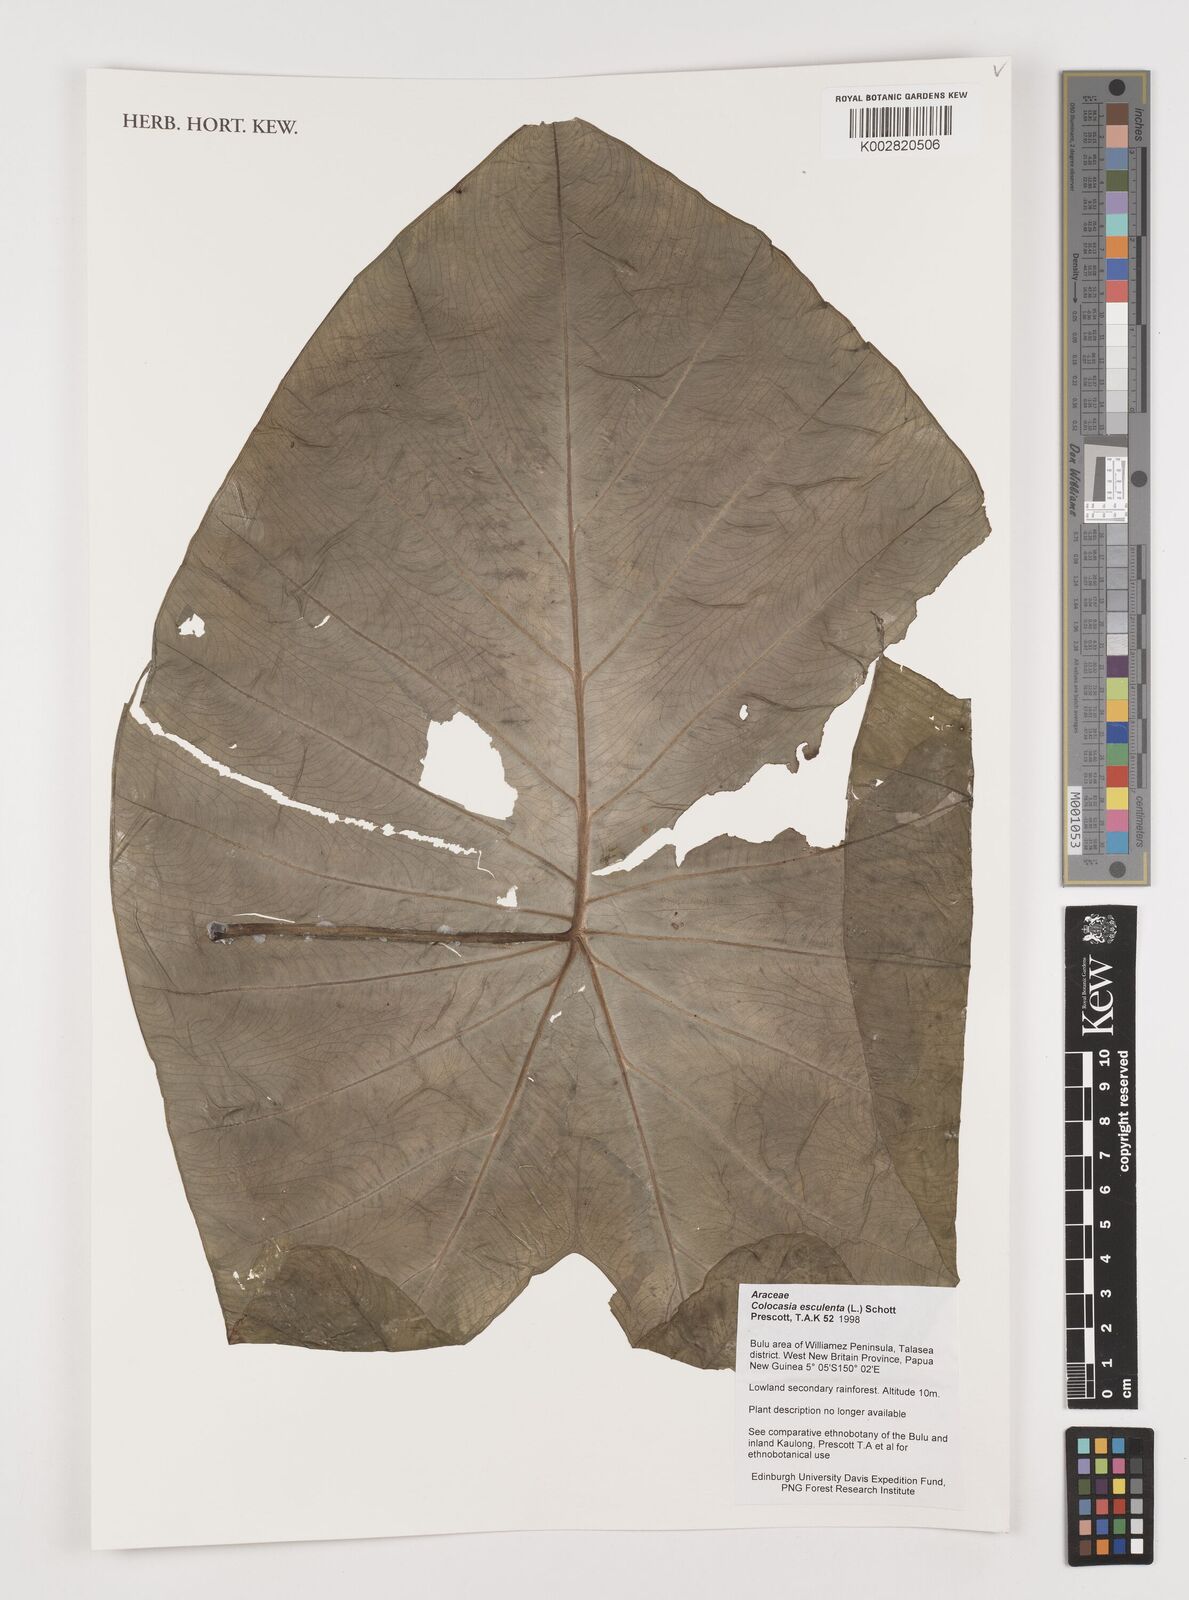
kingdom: Plantae
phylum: Tracheophyta
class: Liliopsida
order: Alismatales
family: Araceae
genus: Colocasia
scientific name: Colocasia esculenta
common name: Taro
